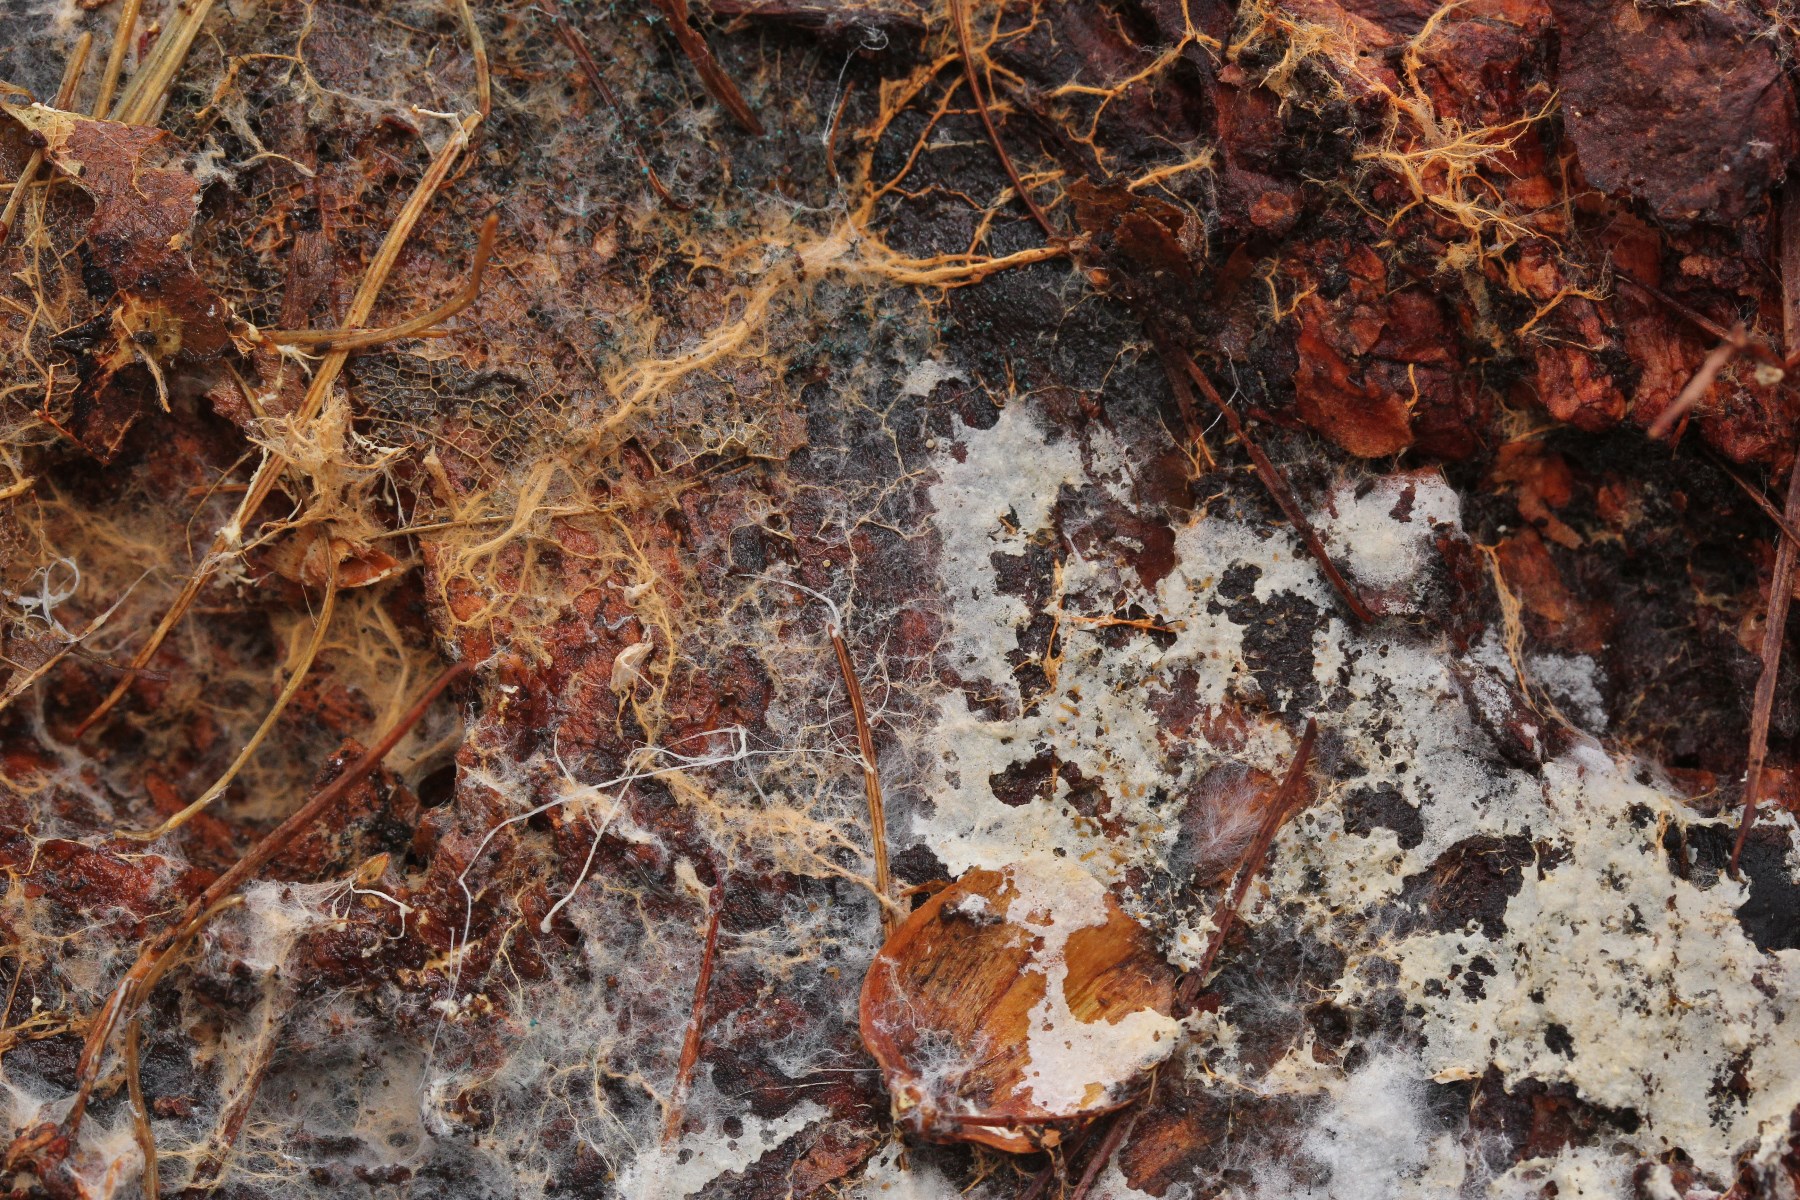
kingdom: Fungi
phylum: Basidiomycota
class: Agaricomycetes
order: Atheliales
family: Atheliaceae
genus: Leptosporomyces
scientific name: Leptosporomyces fuscostratus
